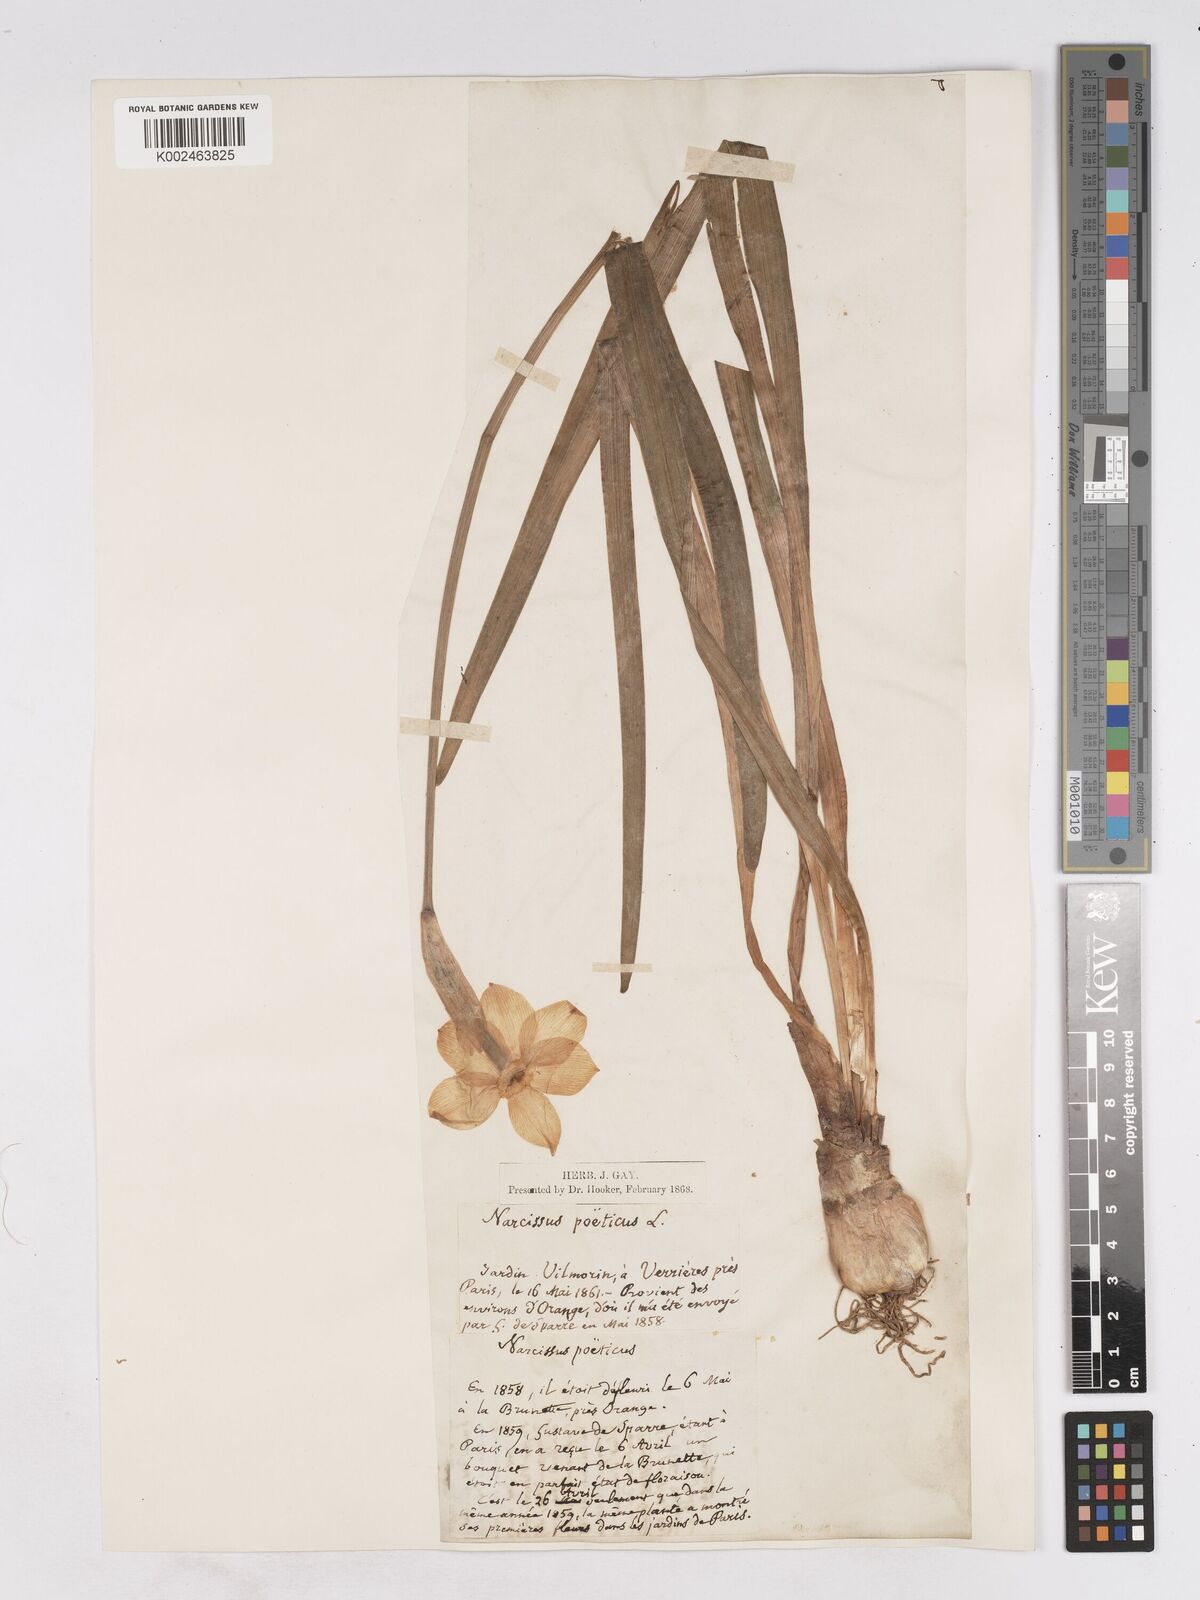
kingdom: Plantae
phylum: Tracheophyta
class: Liliopsida
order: Asparagales
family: Amaryllidaceae
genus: Narcissus
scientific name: Narcissus poeticus
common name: Pheasant's-eye daffodil
